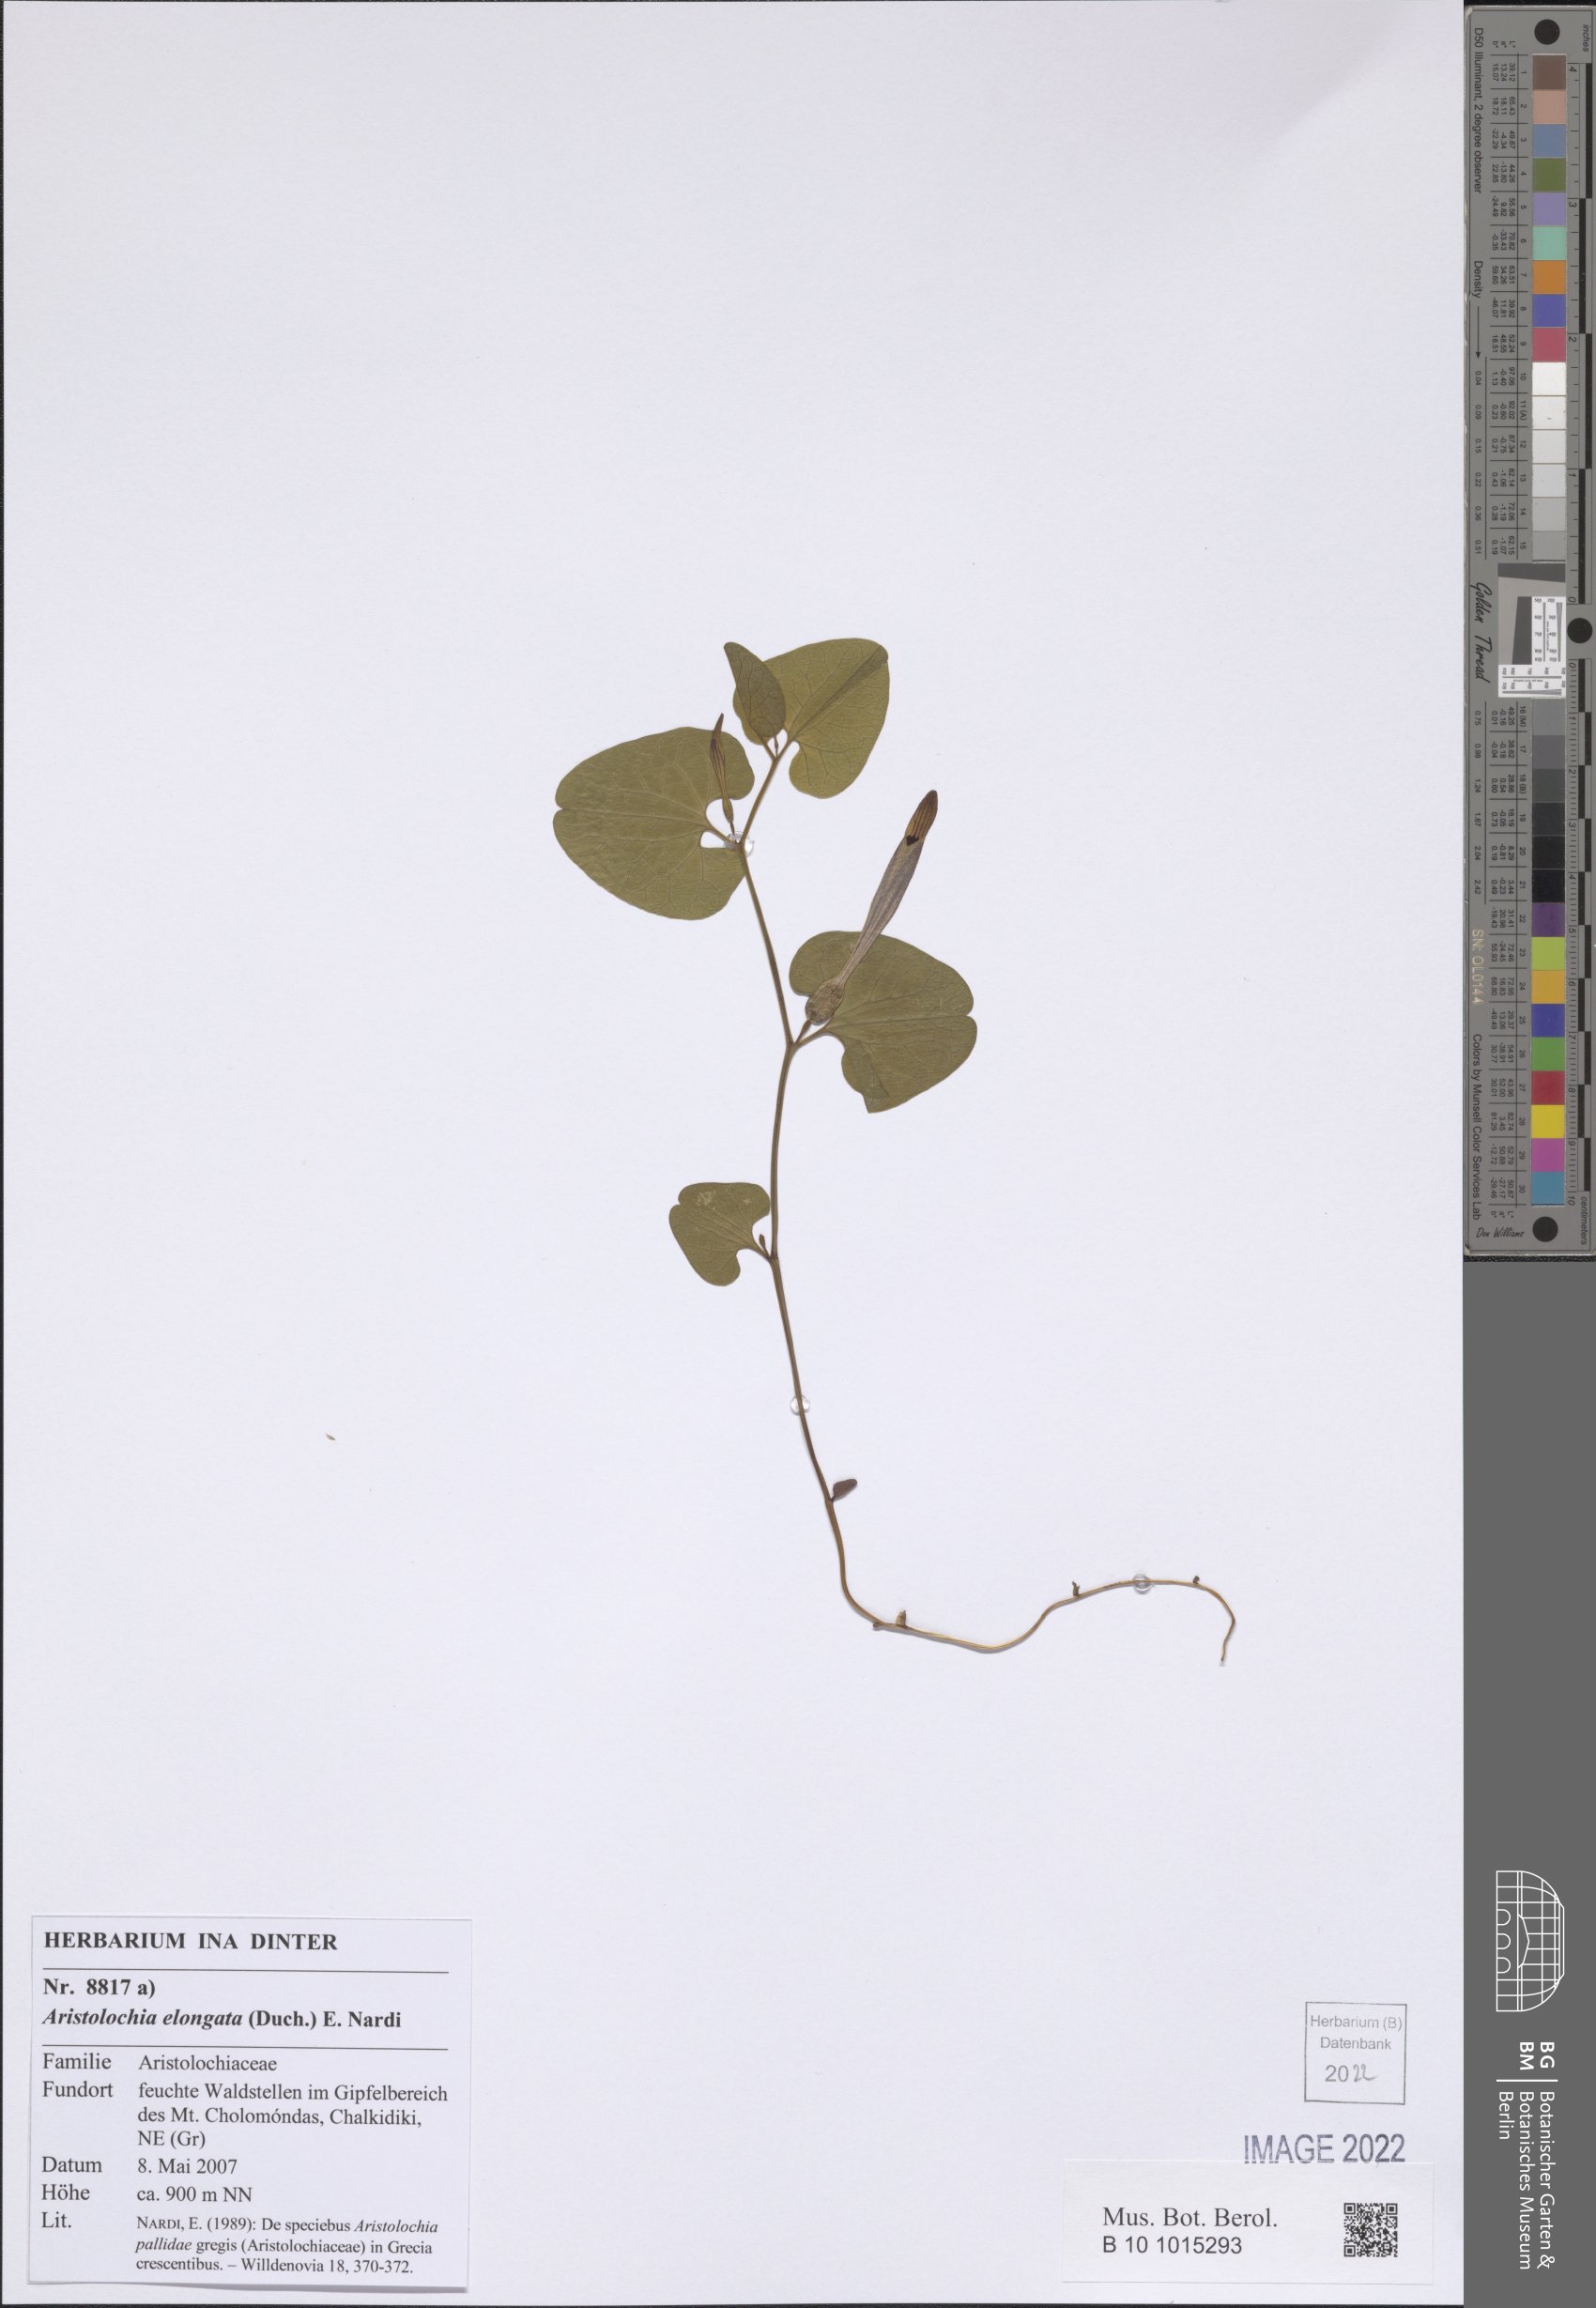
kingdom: Plantae
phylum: Tracheophyta
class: Magnoliopsida
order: Piperales
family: Aristolochiaceae
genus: Aristolochia
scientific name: Aristolochia nardiana
